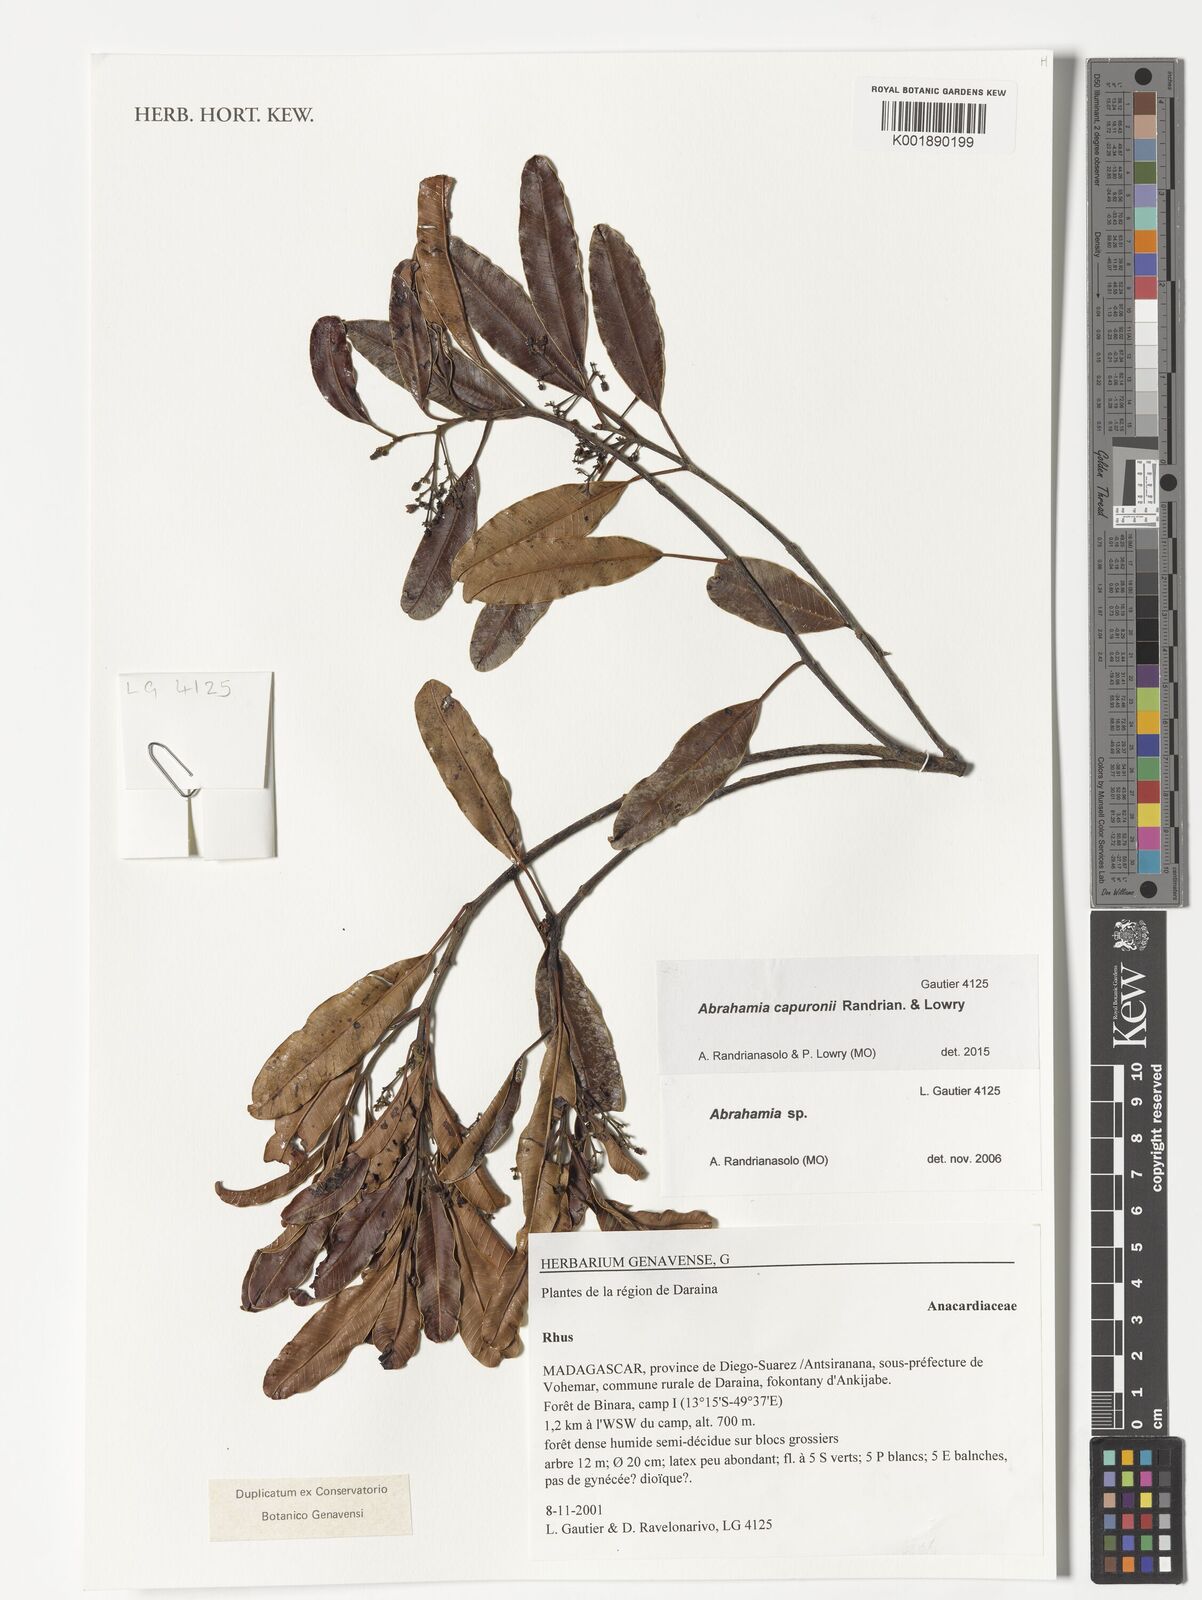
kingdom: Plantae
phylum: Tracheophyta
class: Magnoliopsida
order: Sapindales
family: Anacardiaceae
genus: Abrahamia
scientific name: Abrahamia capuronii
